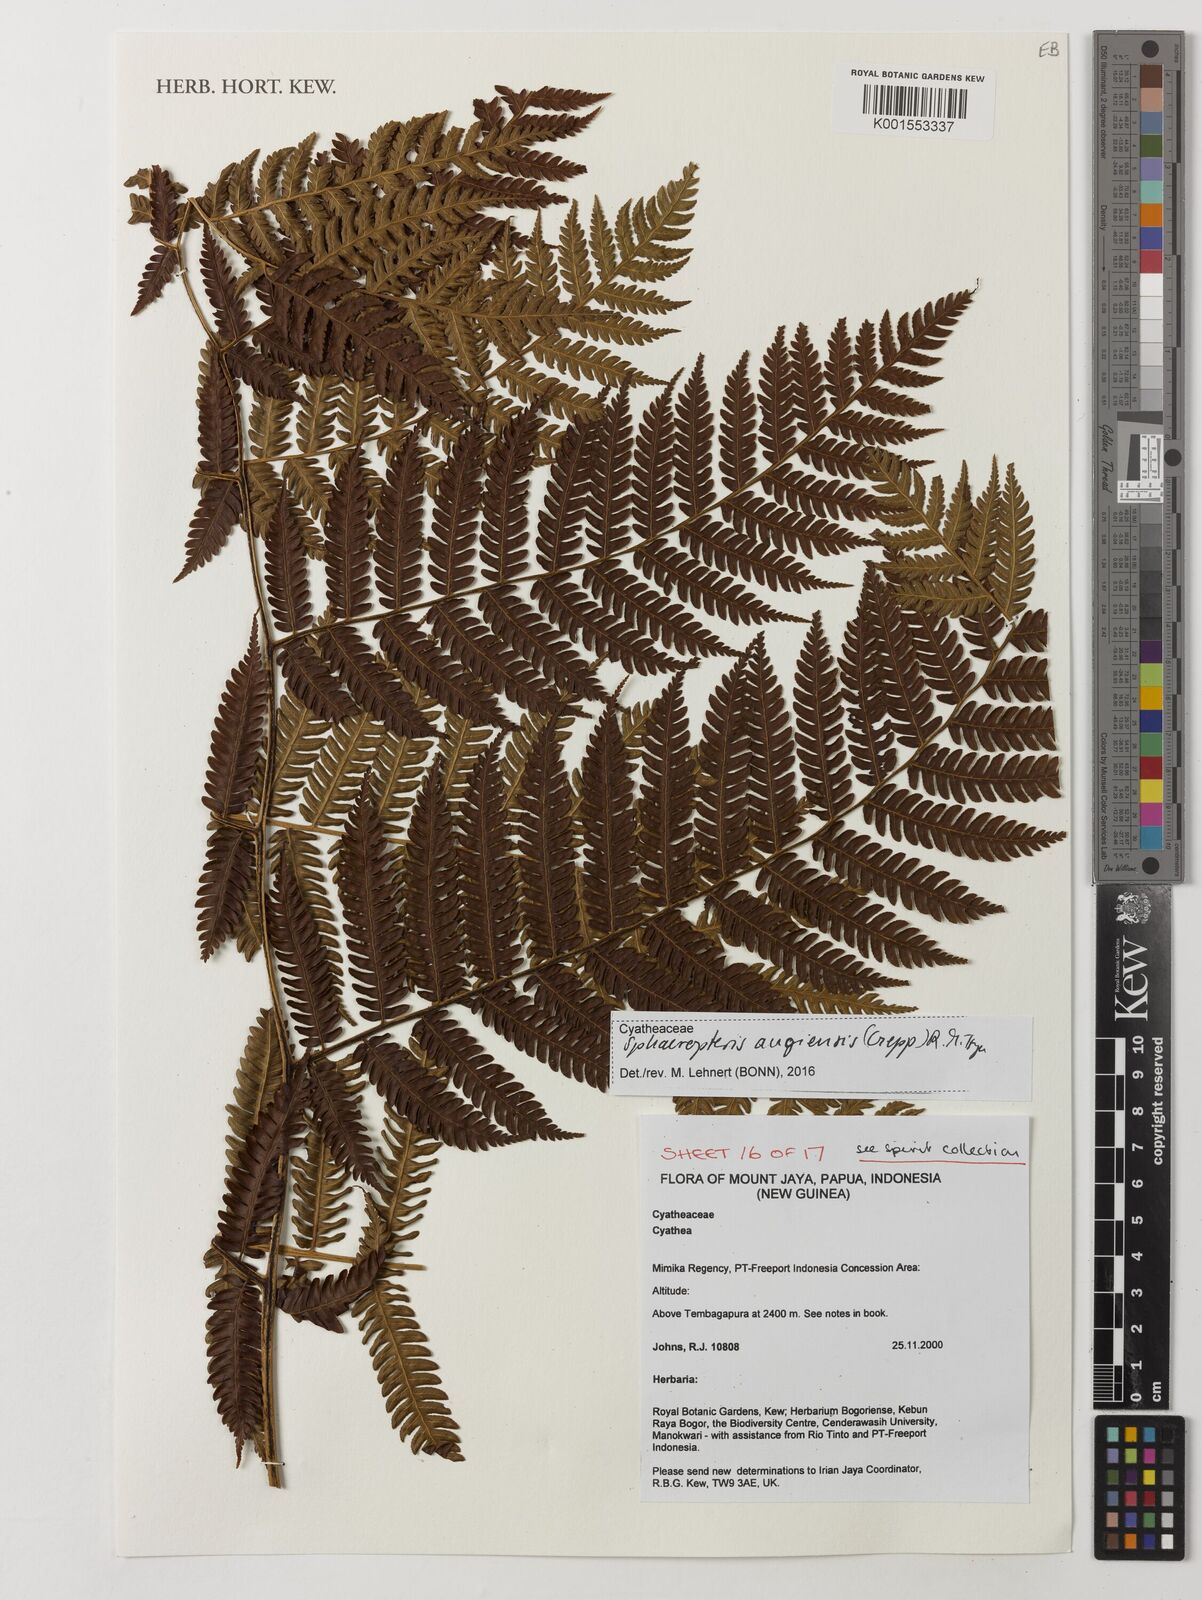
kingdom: Plantae
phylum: Tracheophyta
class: Polypodiopsida
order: Cyatheales
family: Cyatheaceae
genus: Sphaeropteris
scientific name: Sphaeropteris
